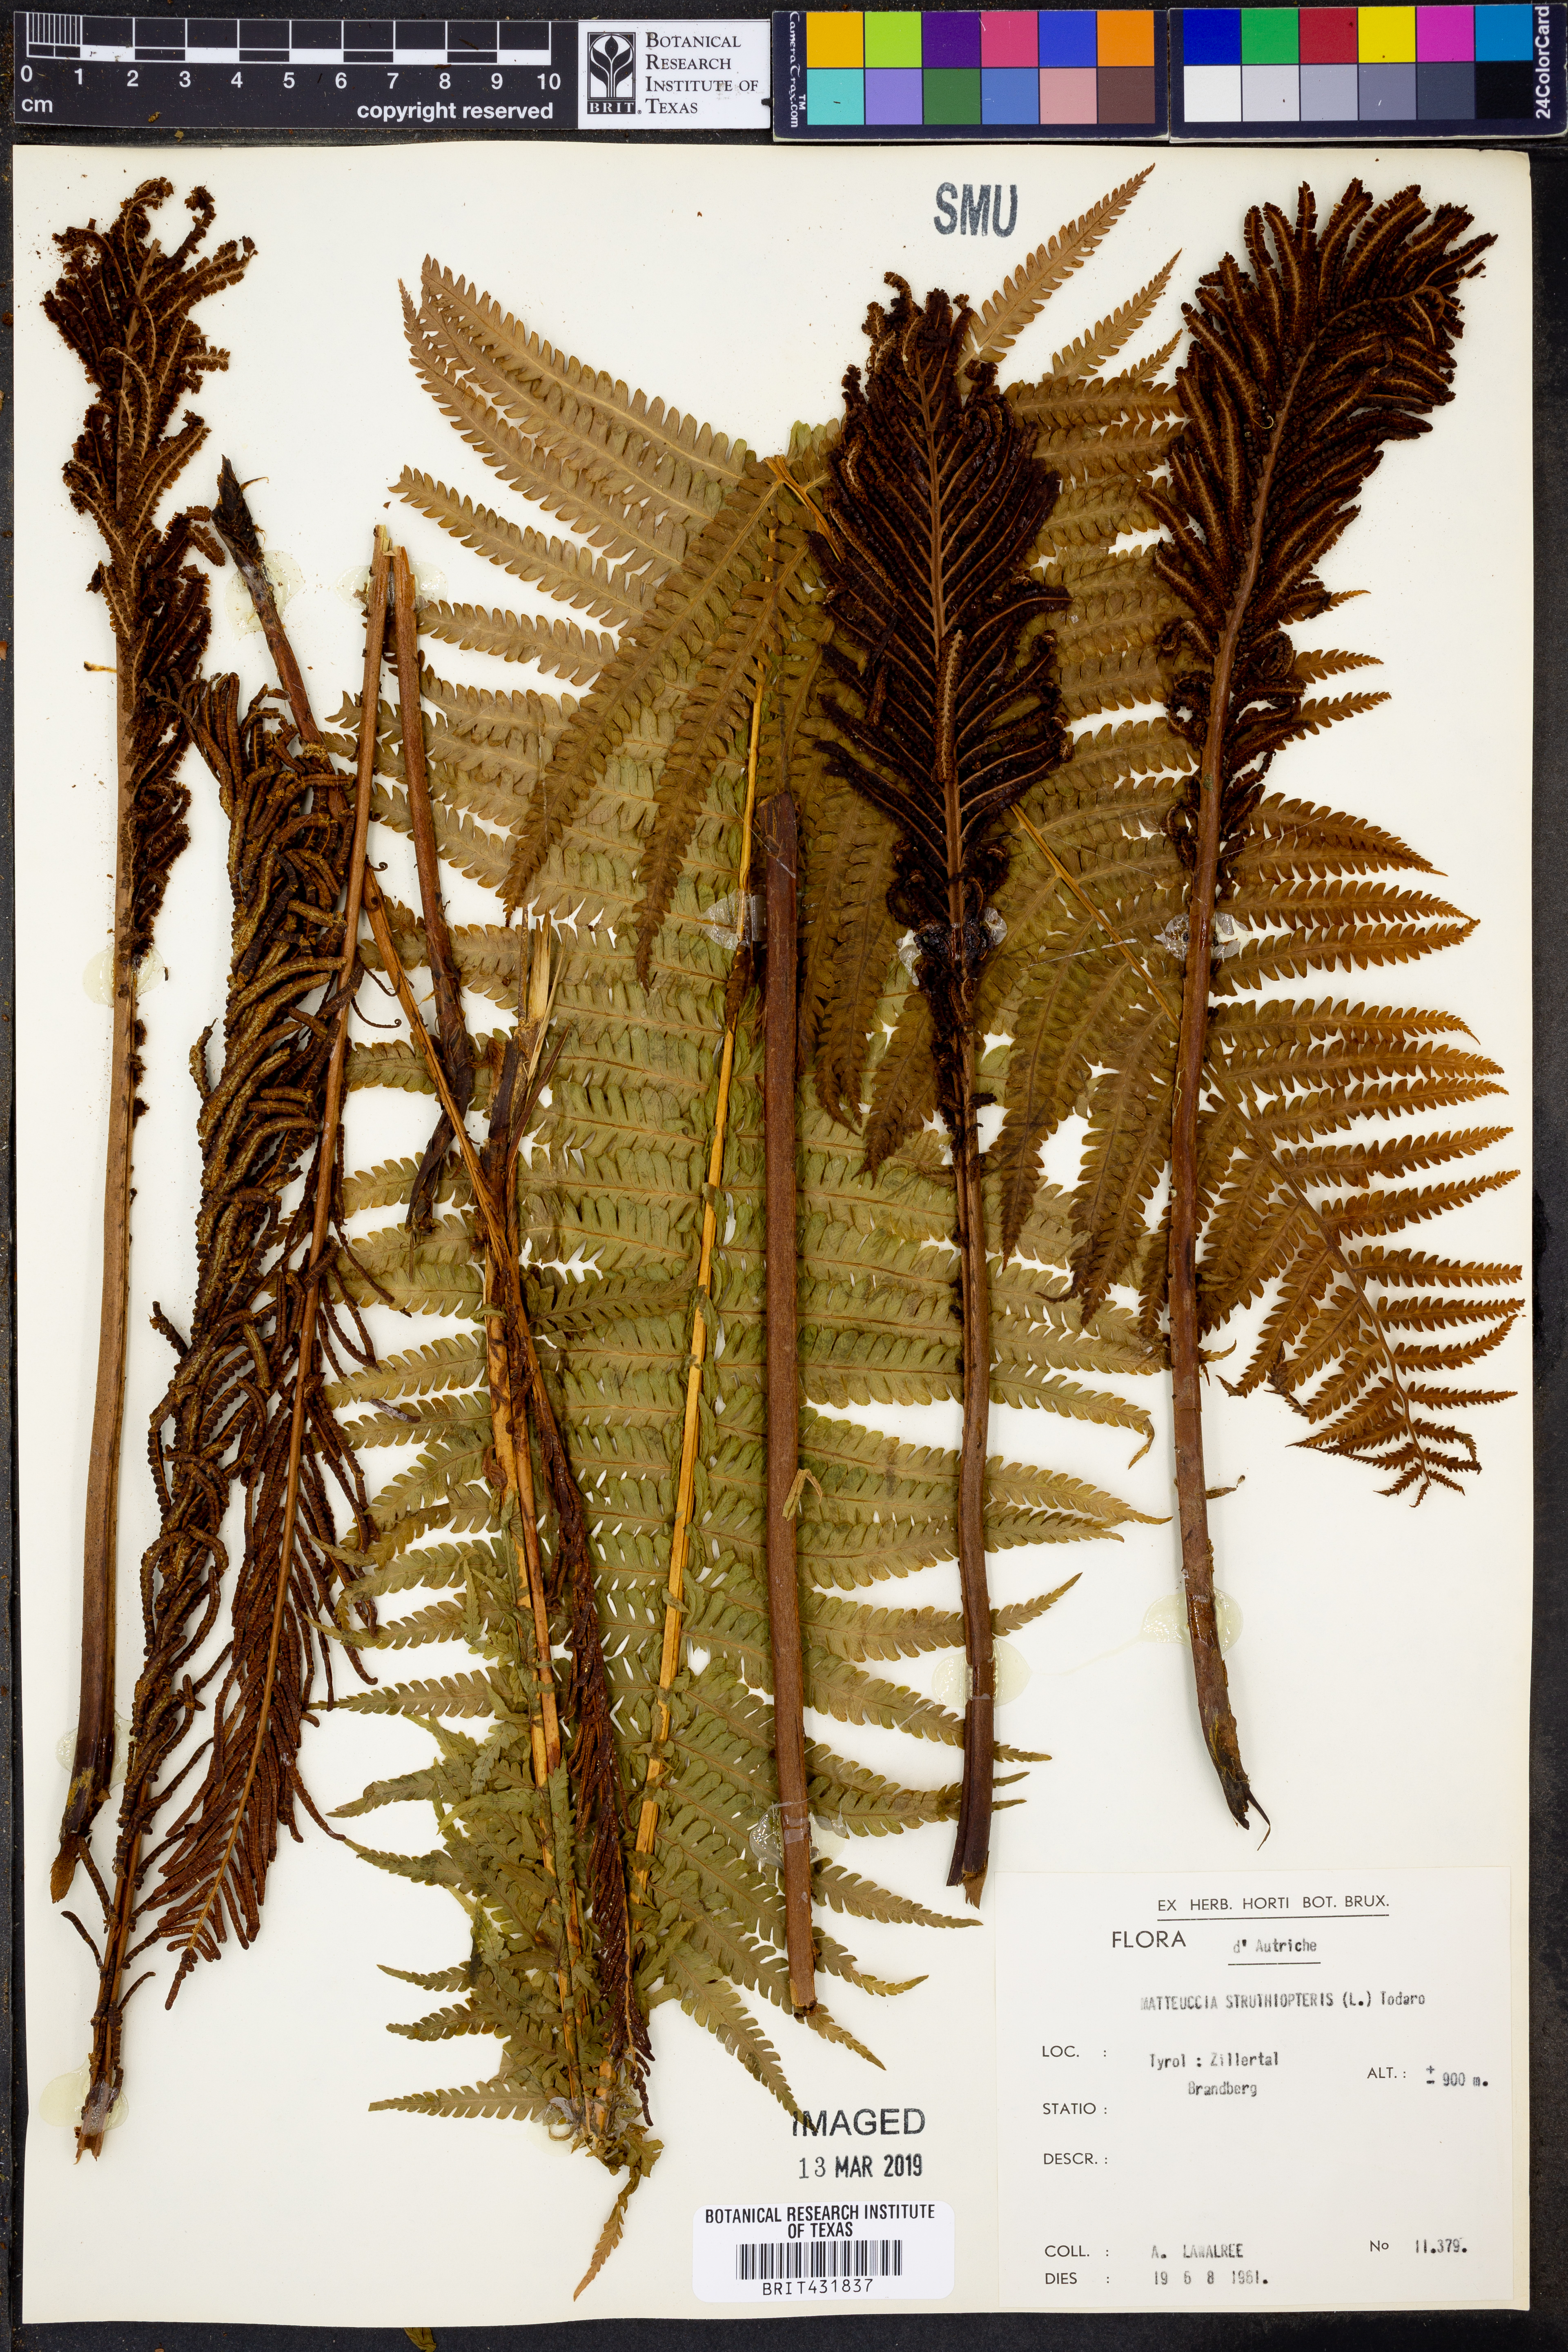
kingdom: Plantae
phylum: Tracheophyta
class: Polypodiopsida
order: Polypodiales
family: Onocleaceae
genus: Matteuccia
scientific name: Matteuccia struthiopteris
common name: Ostrich fern
